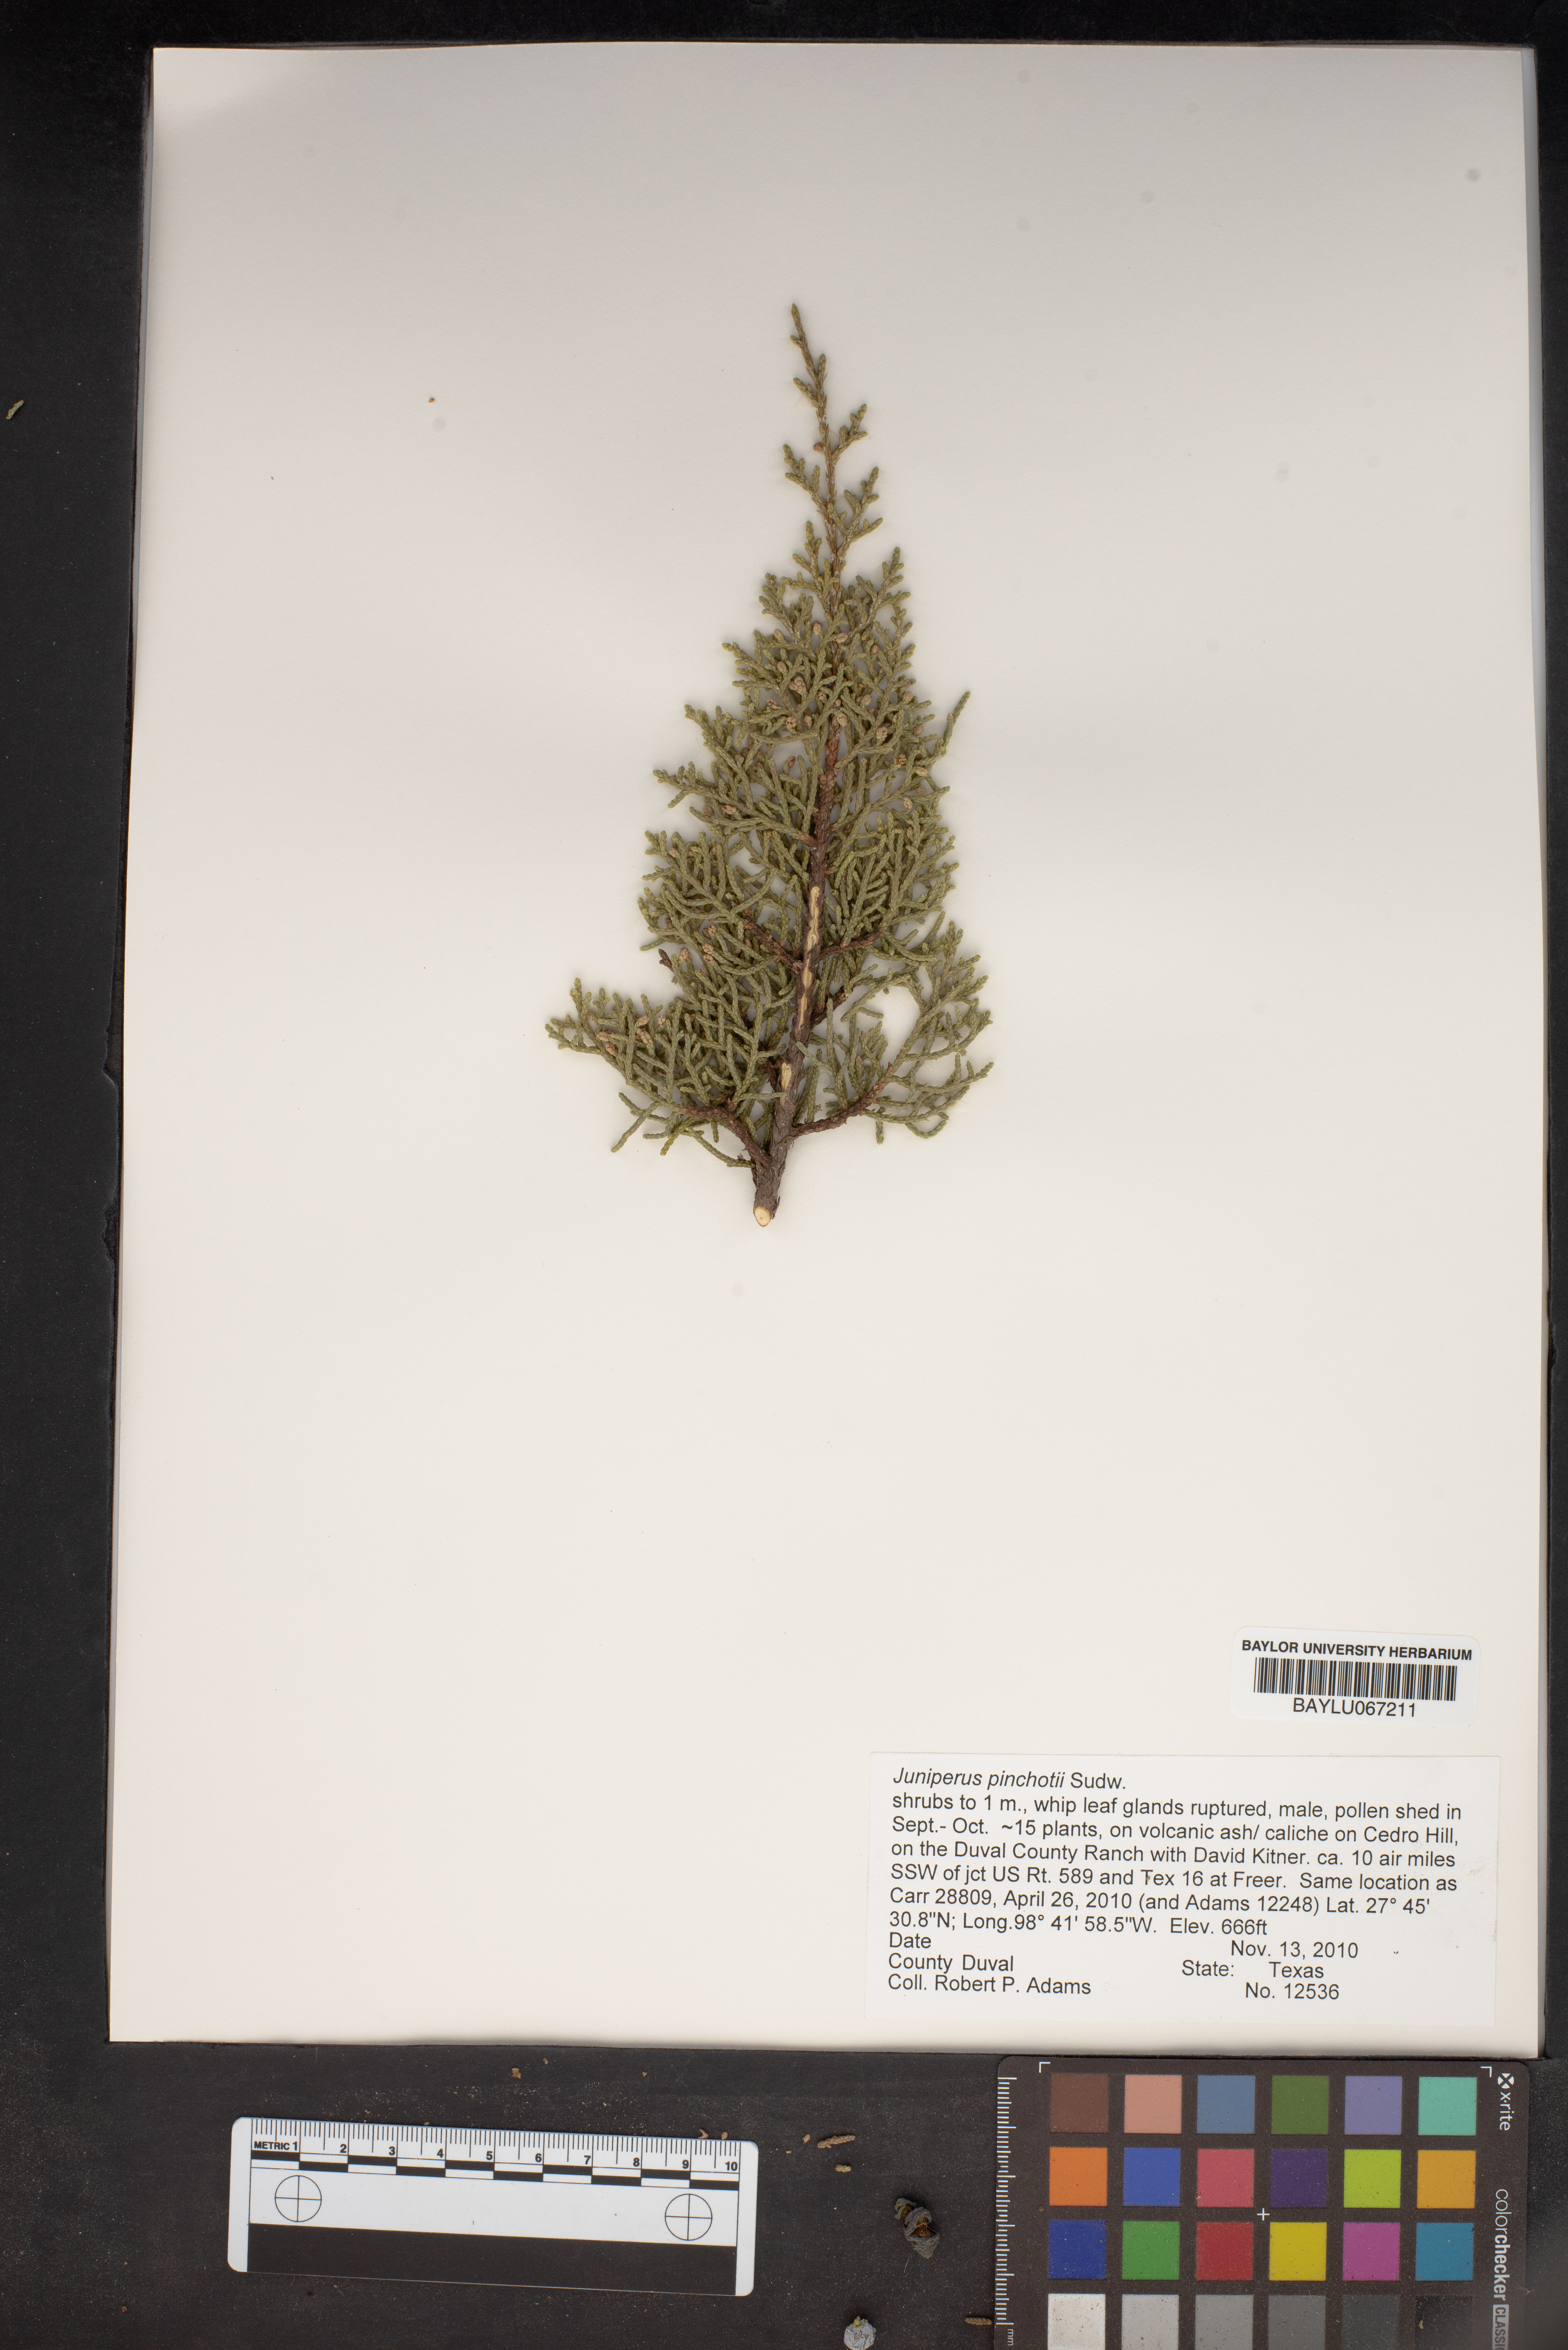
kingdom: Plantae
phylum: Tracheophyta
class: Pinopsida
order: Pinales
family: Cupressaceae
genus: Juniperus
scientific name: Juniperus pinchotii
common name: Pinchot juniper
